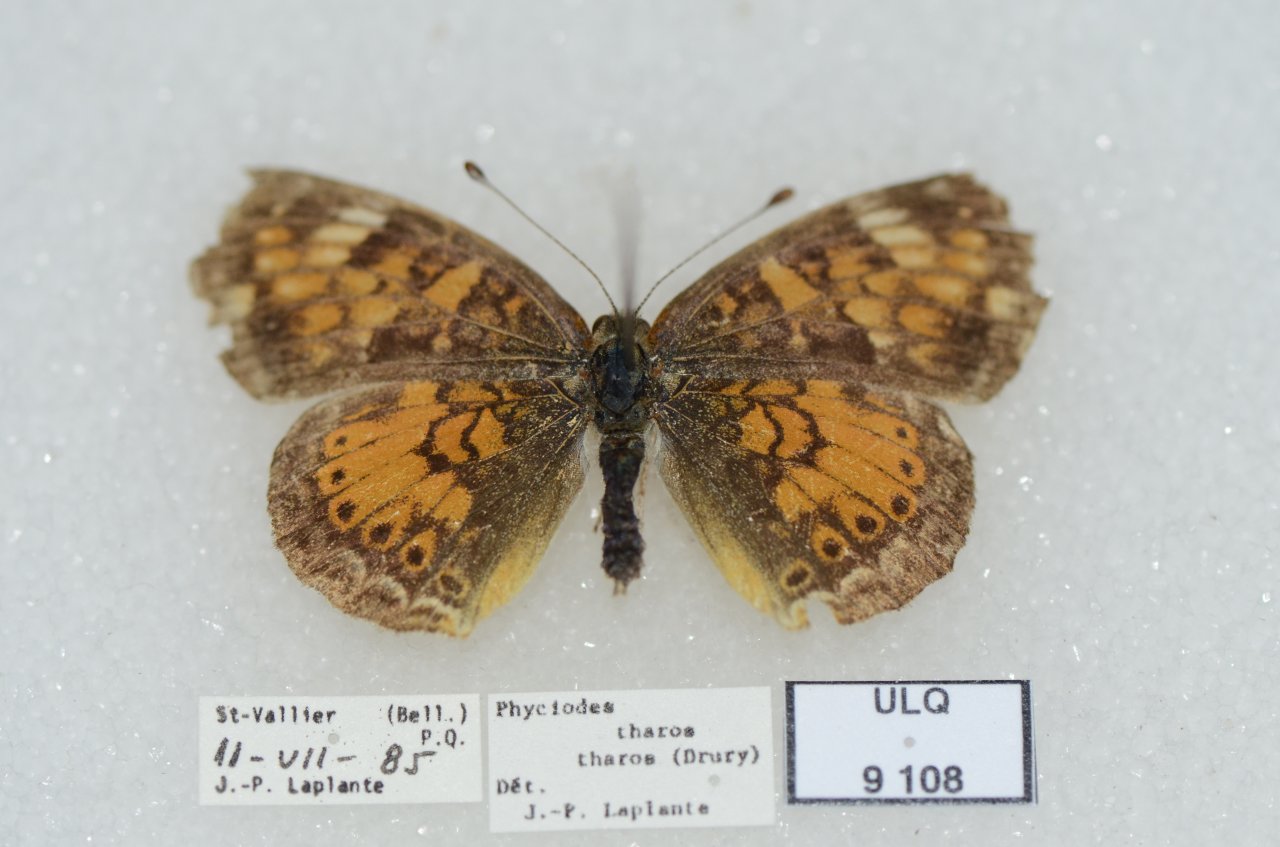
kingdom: Animalia
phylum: Arthropoda
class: Insecta
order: Lepidoptera
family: Nymphalidae
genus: Phyciodes
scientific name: Phyciodes tharos
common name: Northern Crescent
